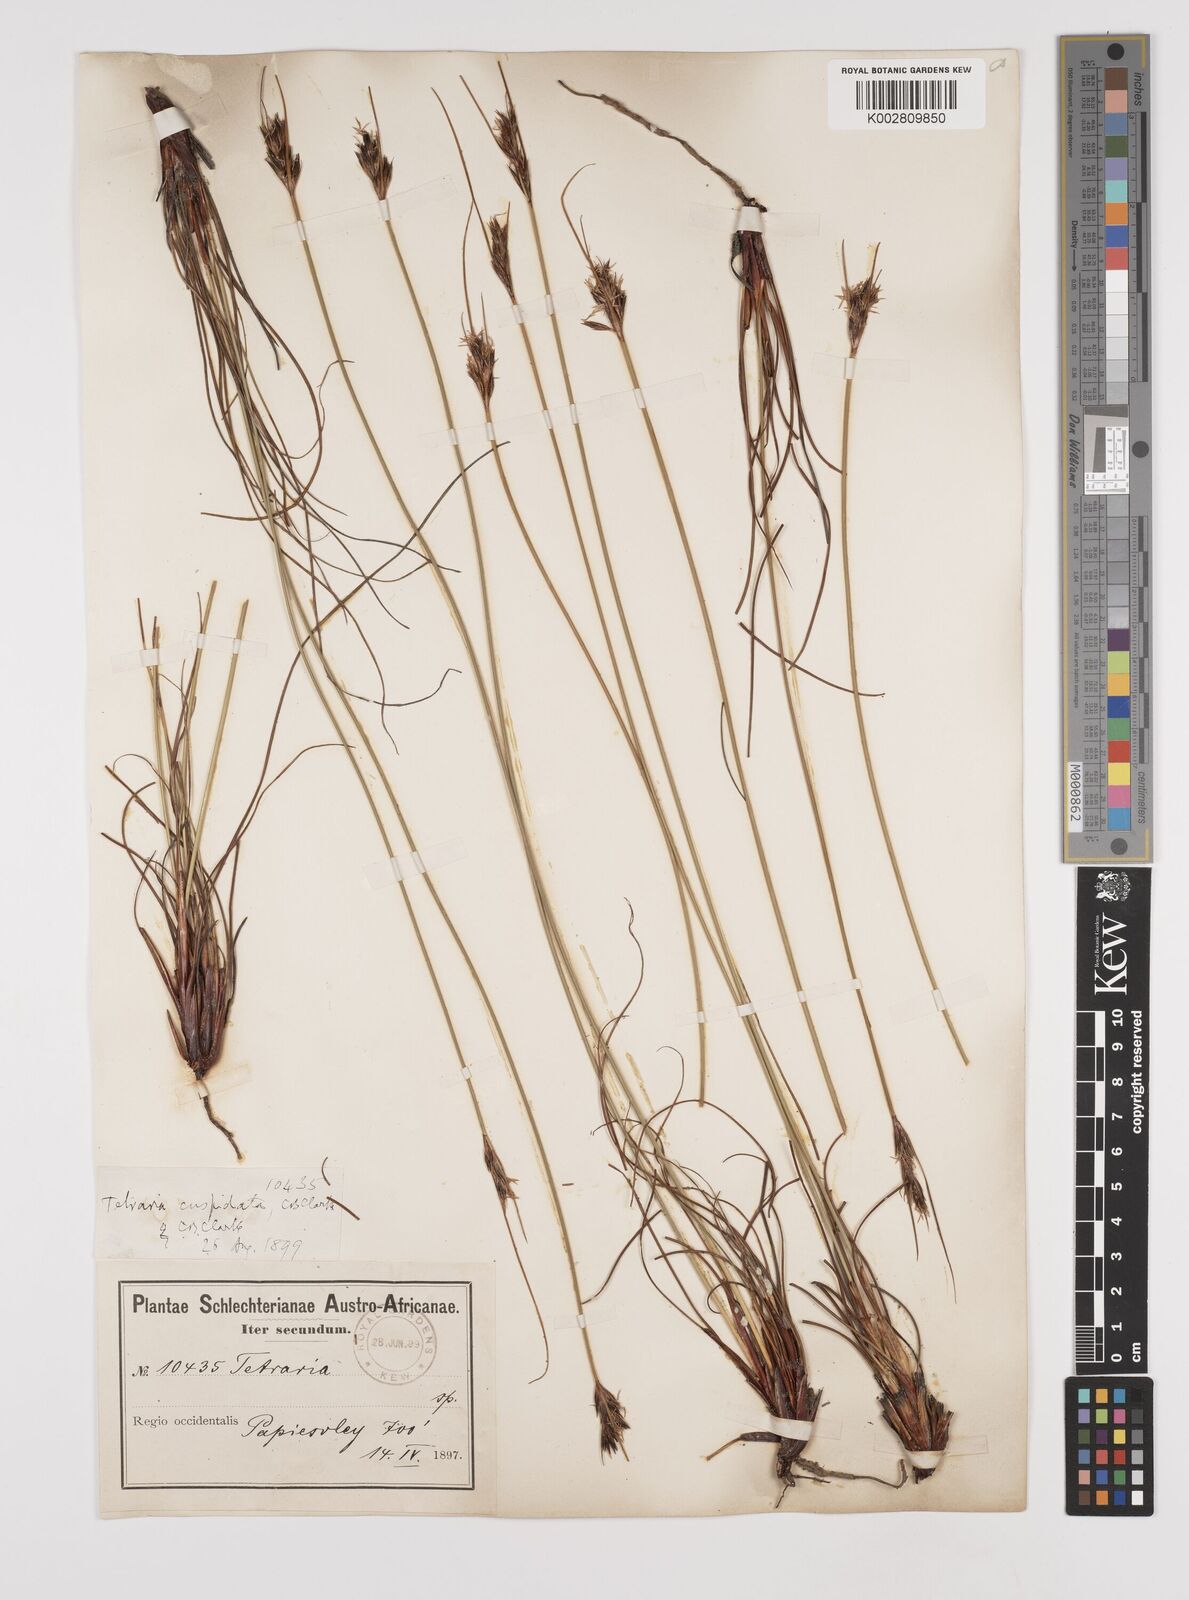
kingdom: Plantae
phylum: Tracheophyta
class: Liliopsida
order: Poales
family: Cyperaceae
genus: Schoenus
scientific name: Schoenus pseudoloreus
